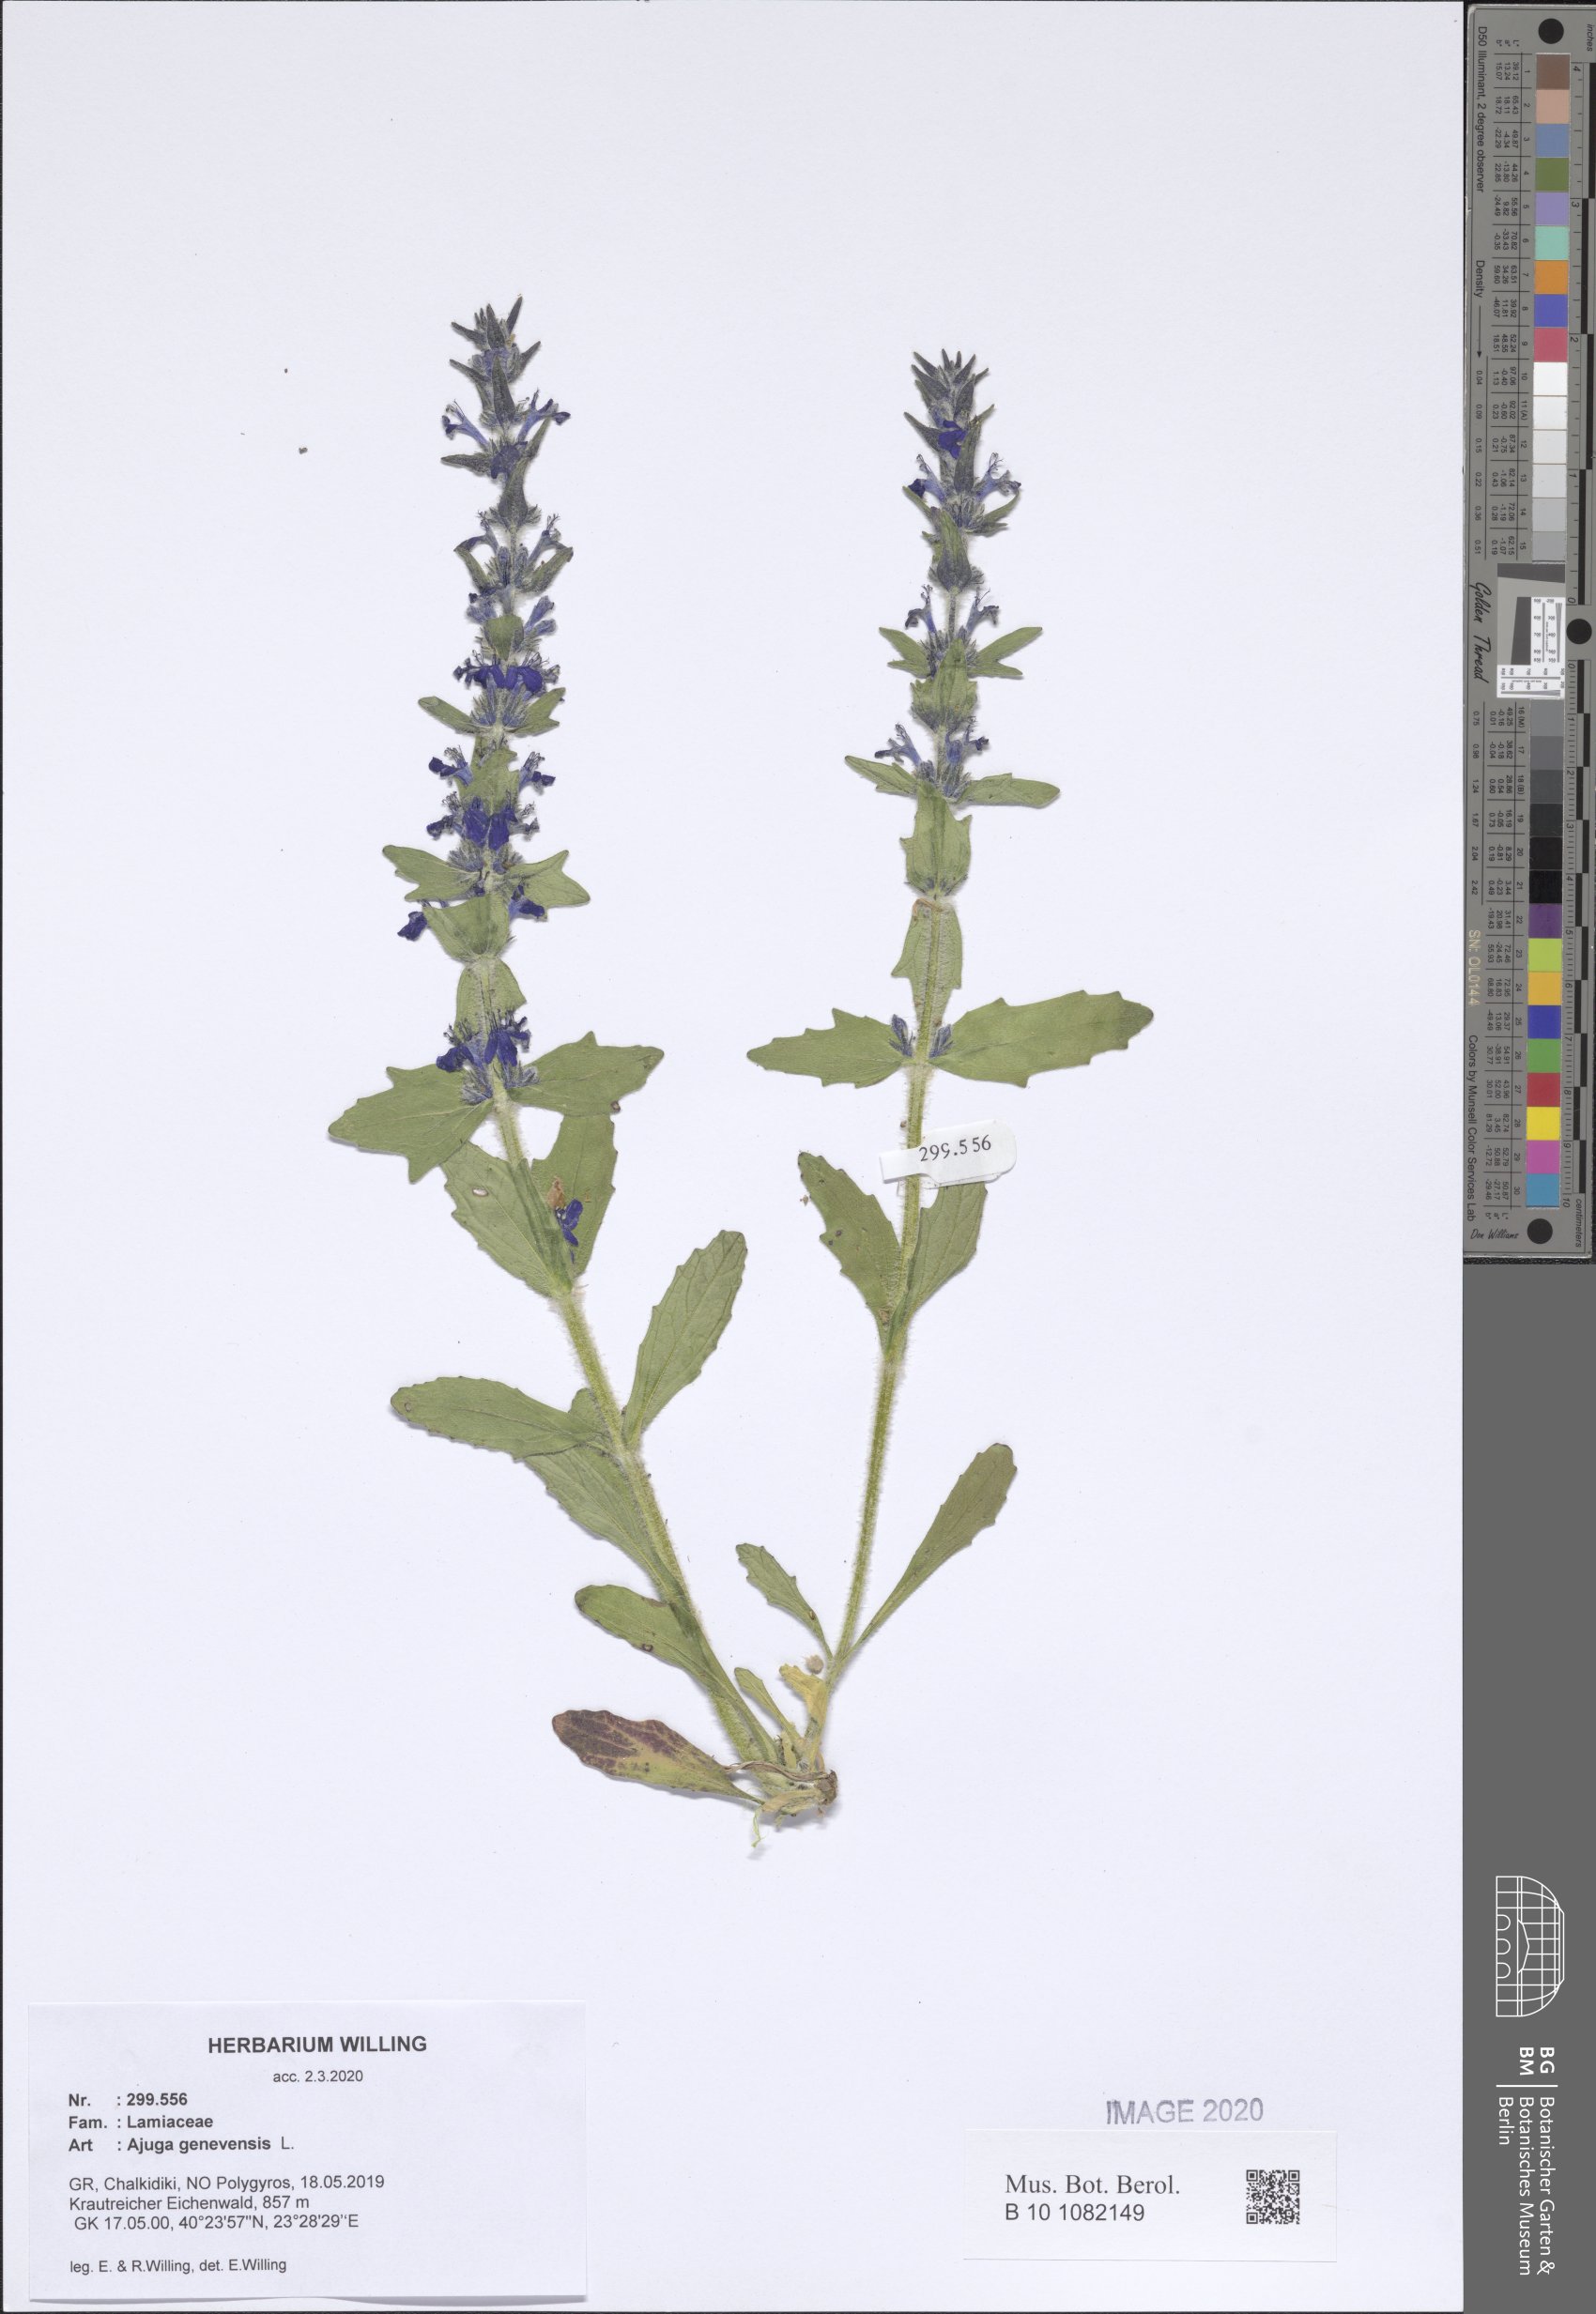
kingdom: Plantae
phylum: Tracheophyta
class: Magnoliopsida
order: Lamiales
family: Lamiaceae
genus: Ajuga
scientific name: Ajuga genevensis
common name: Blue bugle
